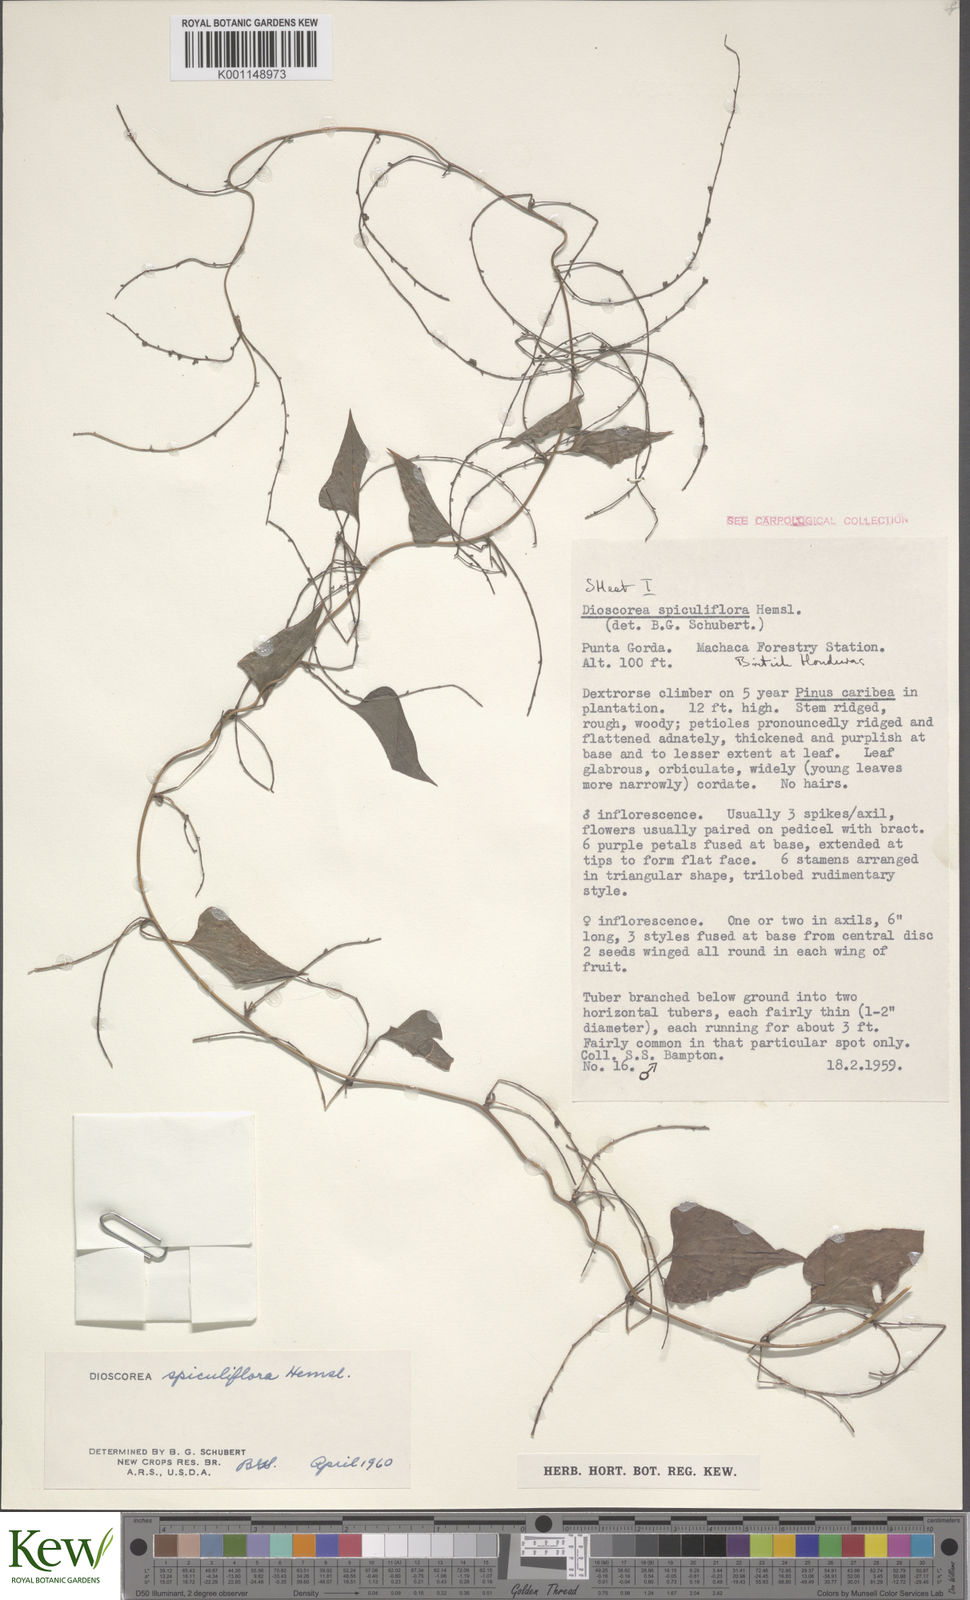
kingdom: Plantae
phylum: Tracheophyta
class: Liliopsida
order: Dioscoreales
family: Dioscoreaceae
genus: Dioscorea
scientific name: Dioscorea spiculiflora
